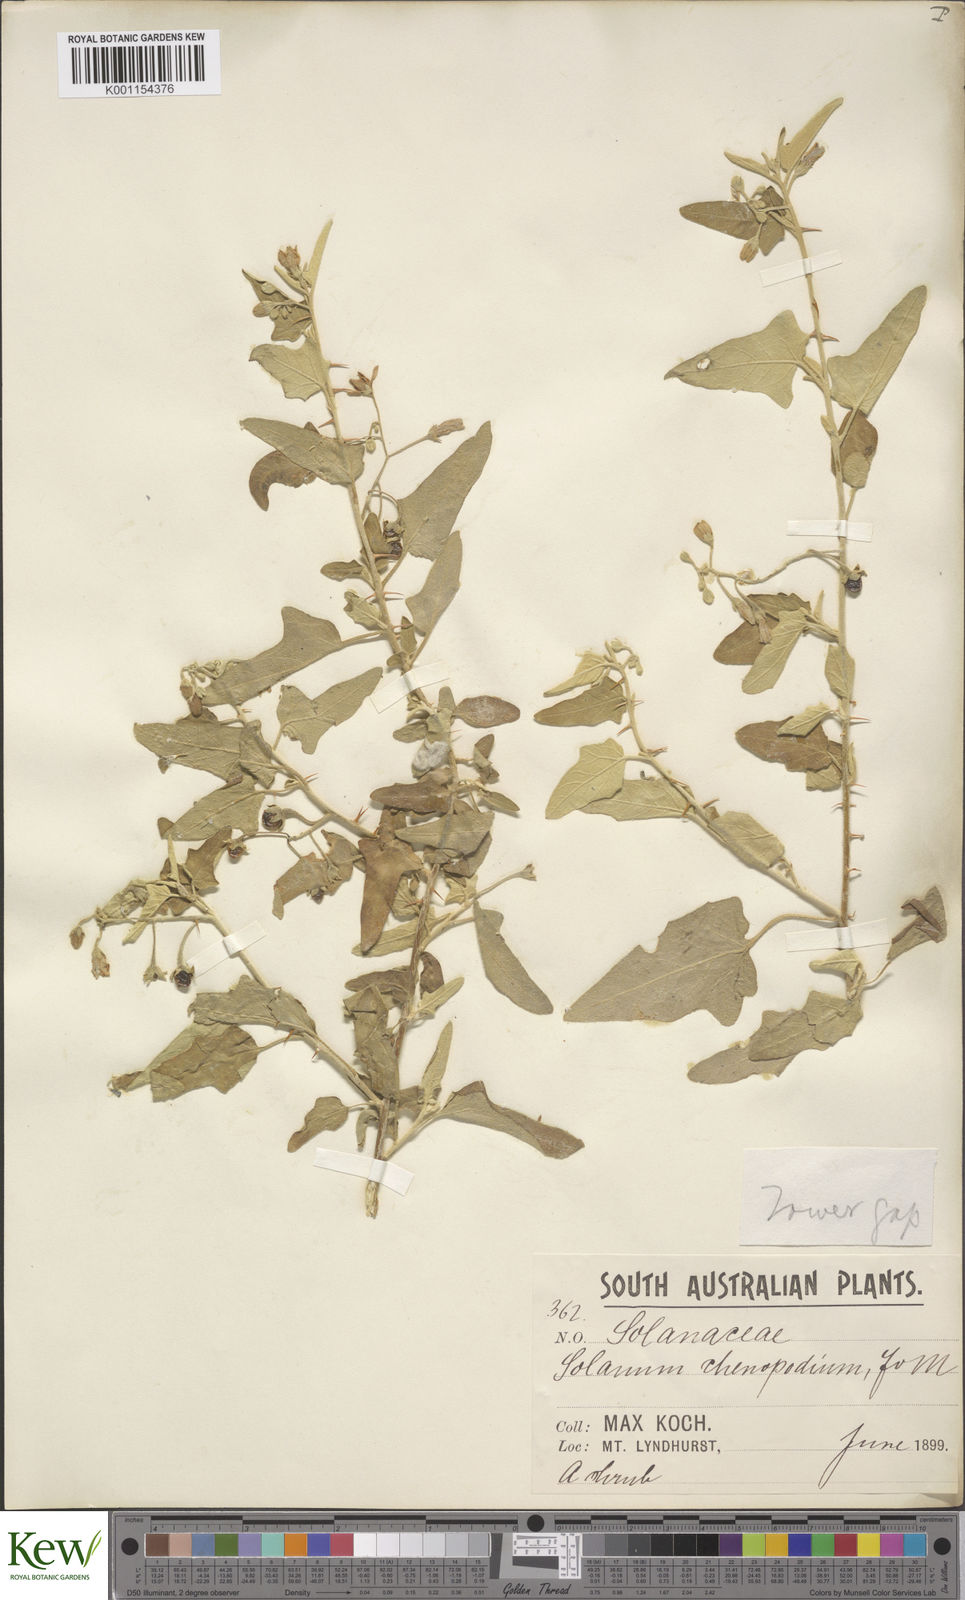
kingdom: Plantae
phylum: Tracheophyta
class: Magnoliopsida
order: Solanales
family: Solanaceae
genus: Solanum
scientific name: Solanum chenopodinum
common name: Goosefoot potato-bush
